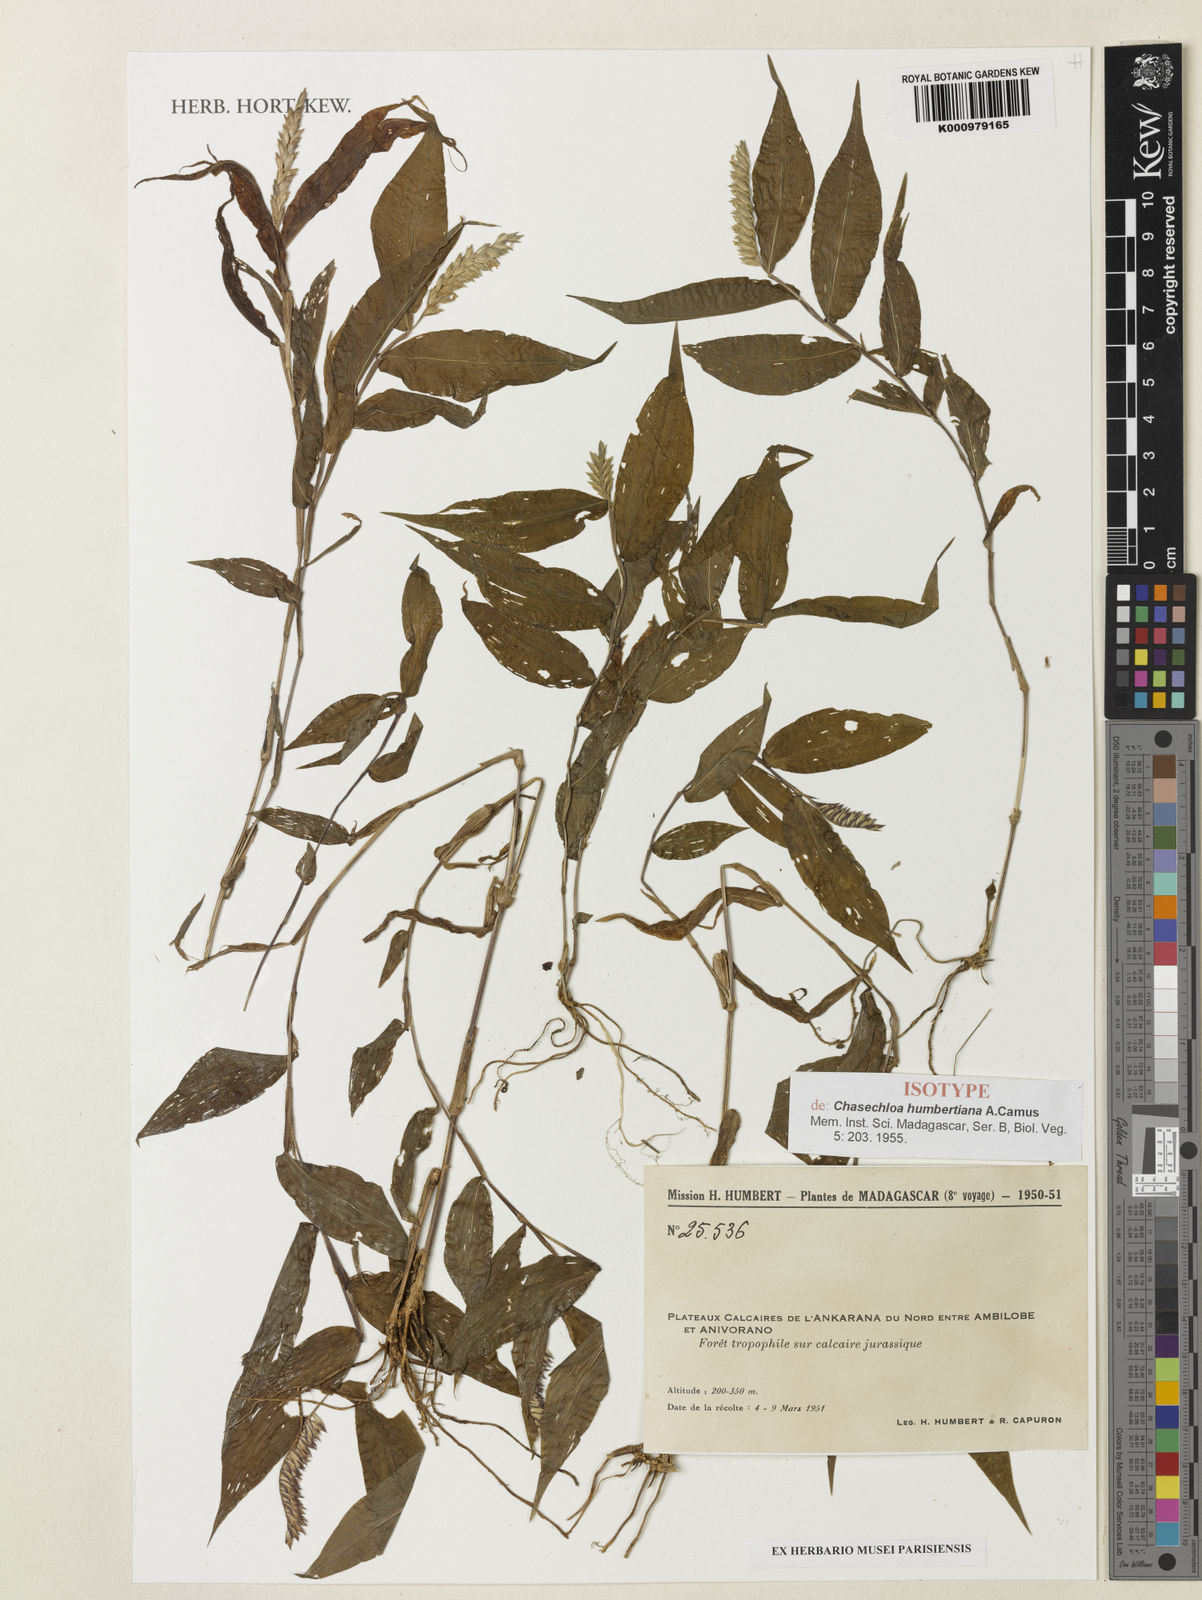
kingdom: Plantae
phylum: Tracheophyta
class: Liliopsida
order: Poales
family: Poaceae
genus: Echinolaena
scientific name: Echinolaena
